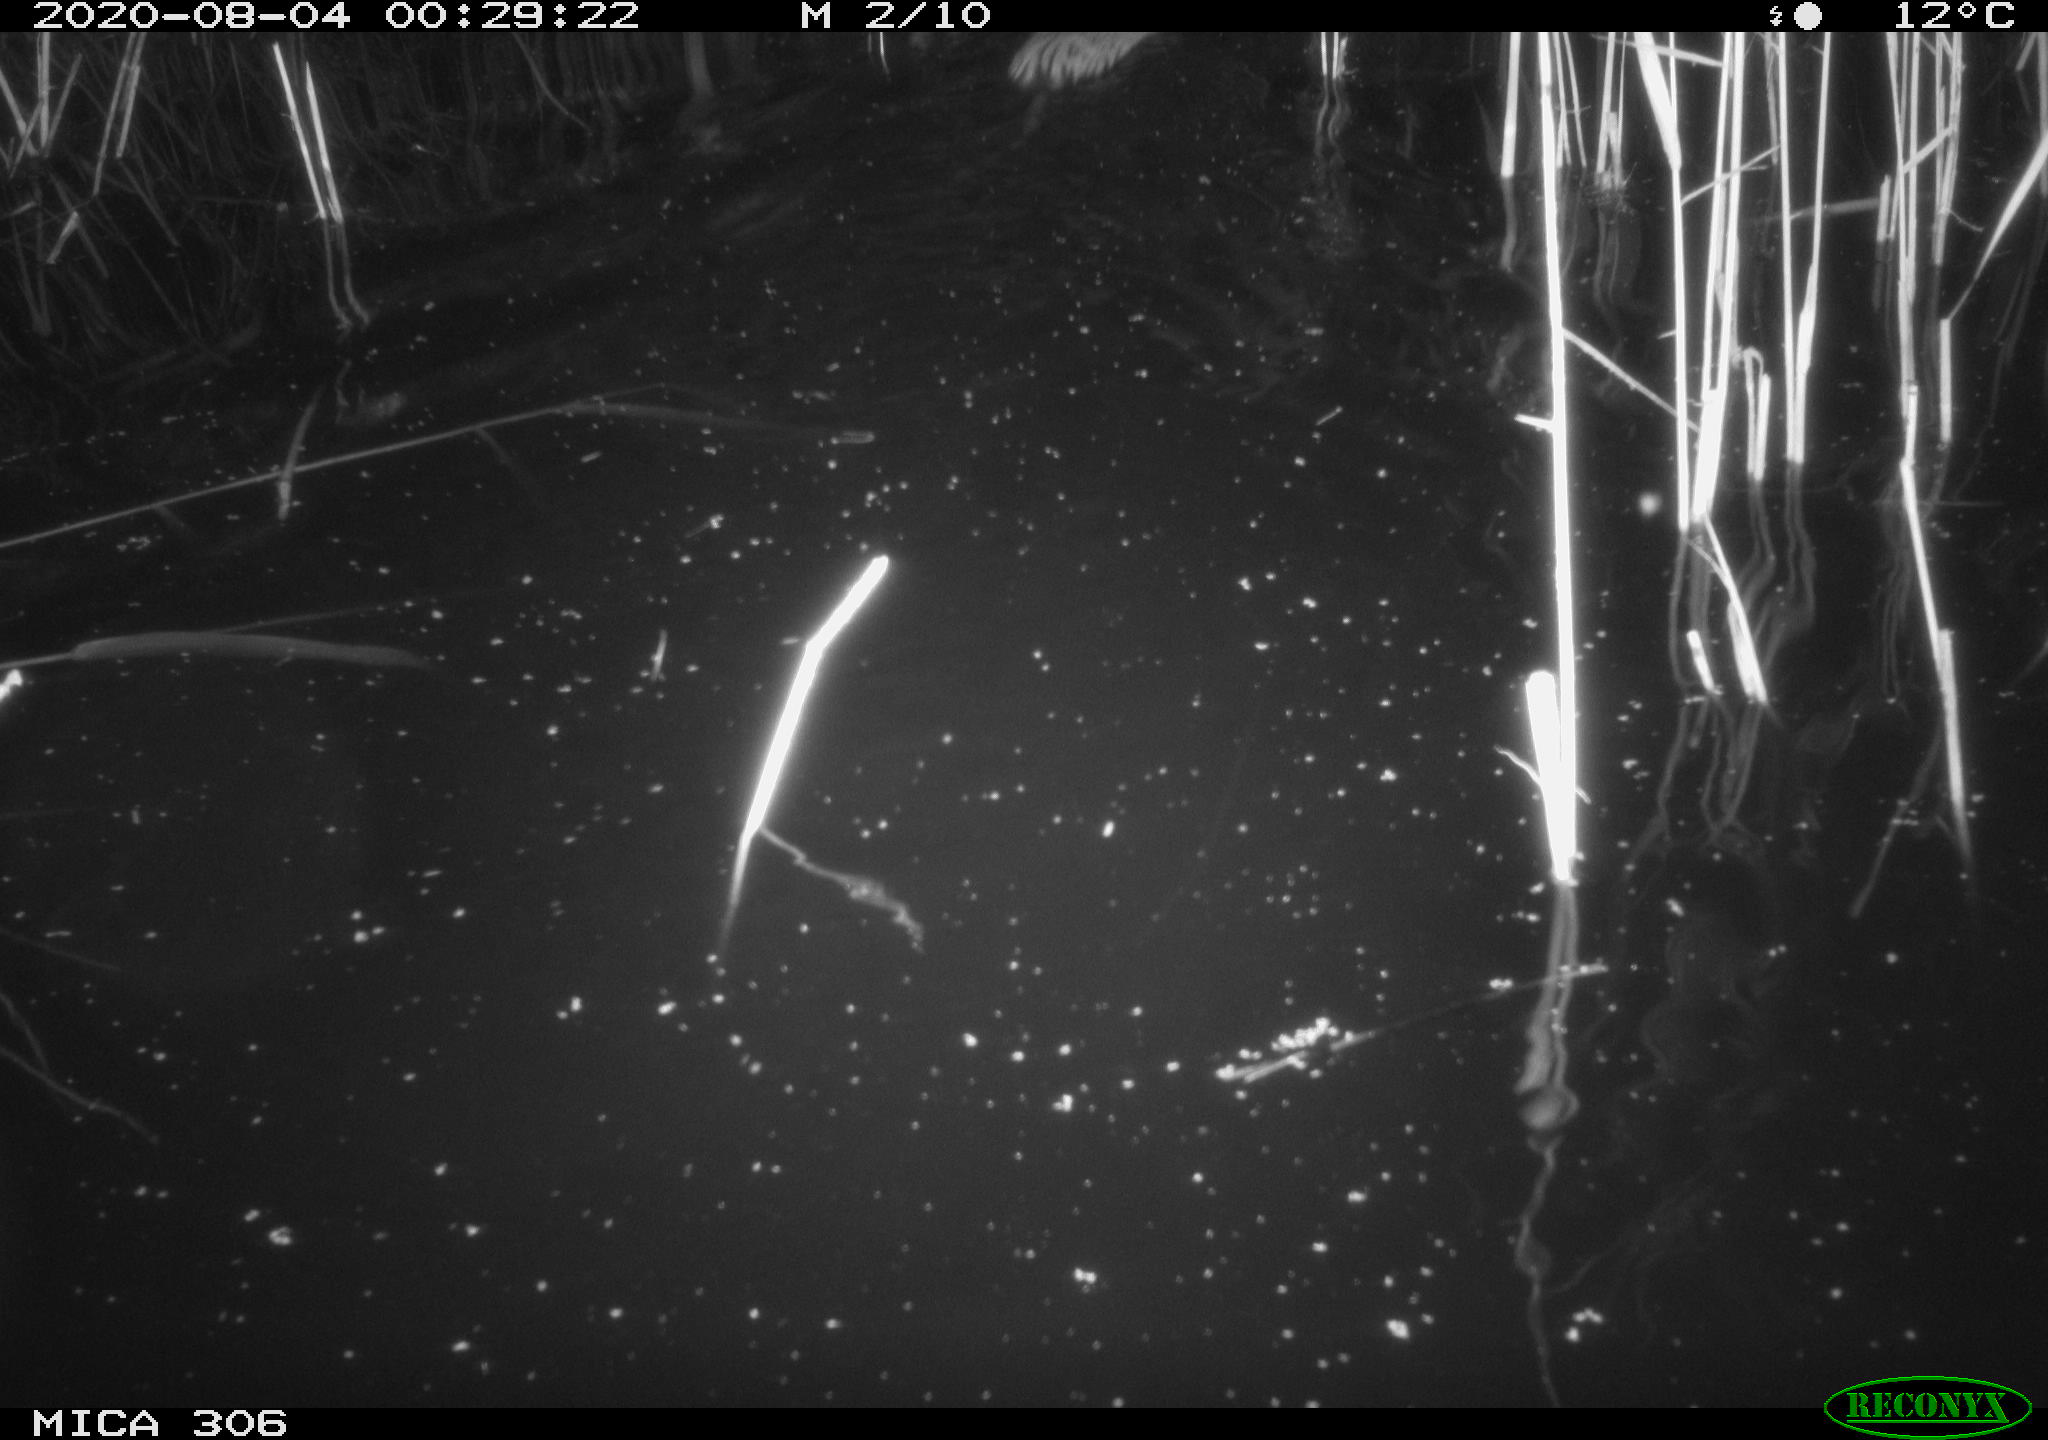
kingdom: Animalia
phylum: Chordata
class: Mammalia
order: Rodentia
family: Cricetidae
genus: Ondatra
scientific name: Ondatra zibethicus
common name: Muskrat
